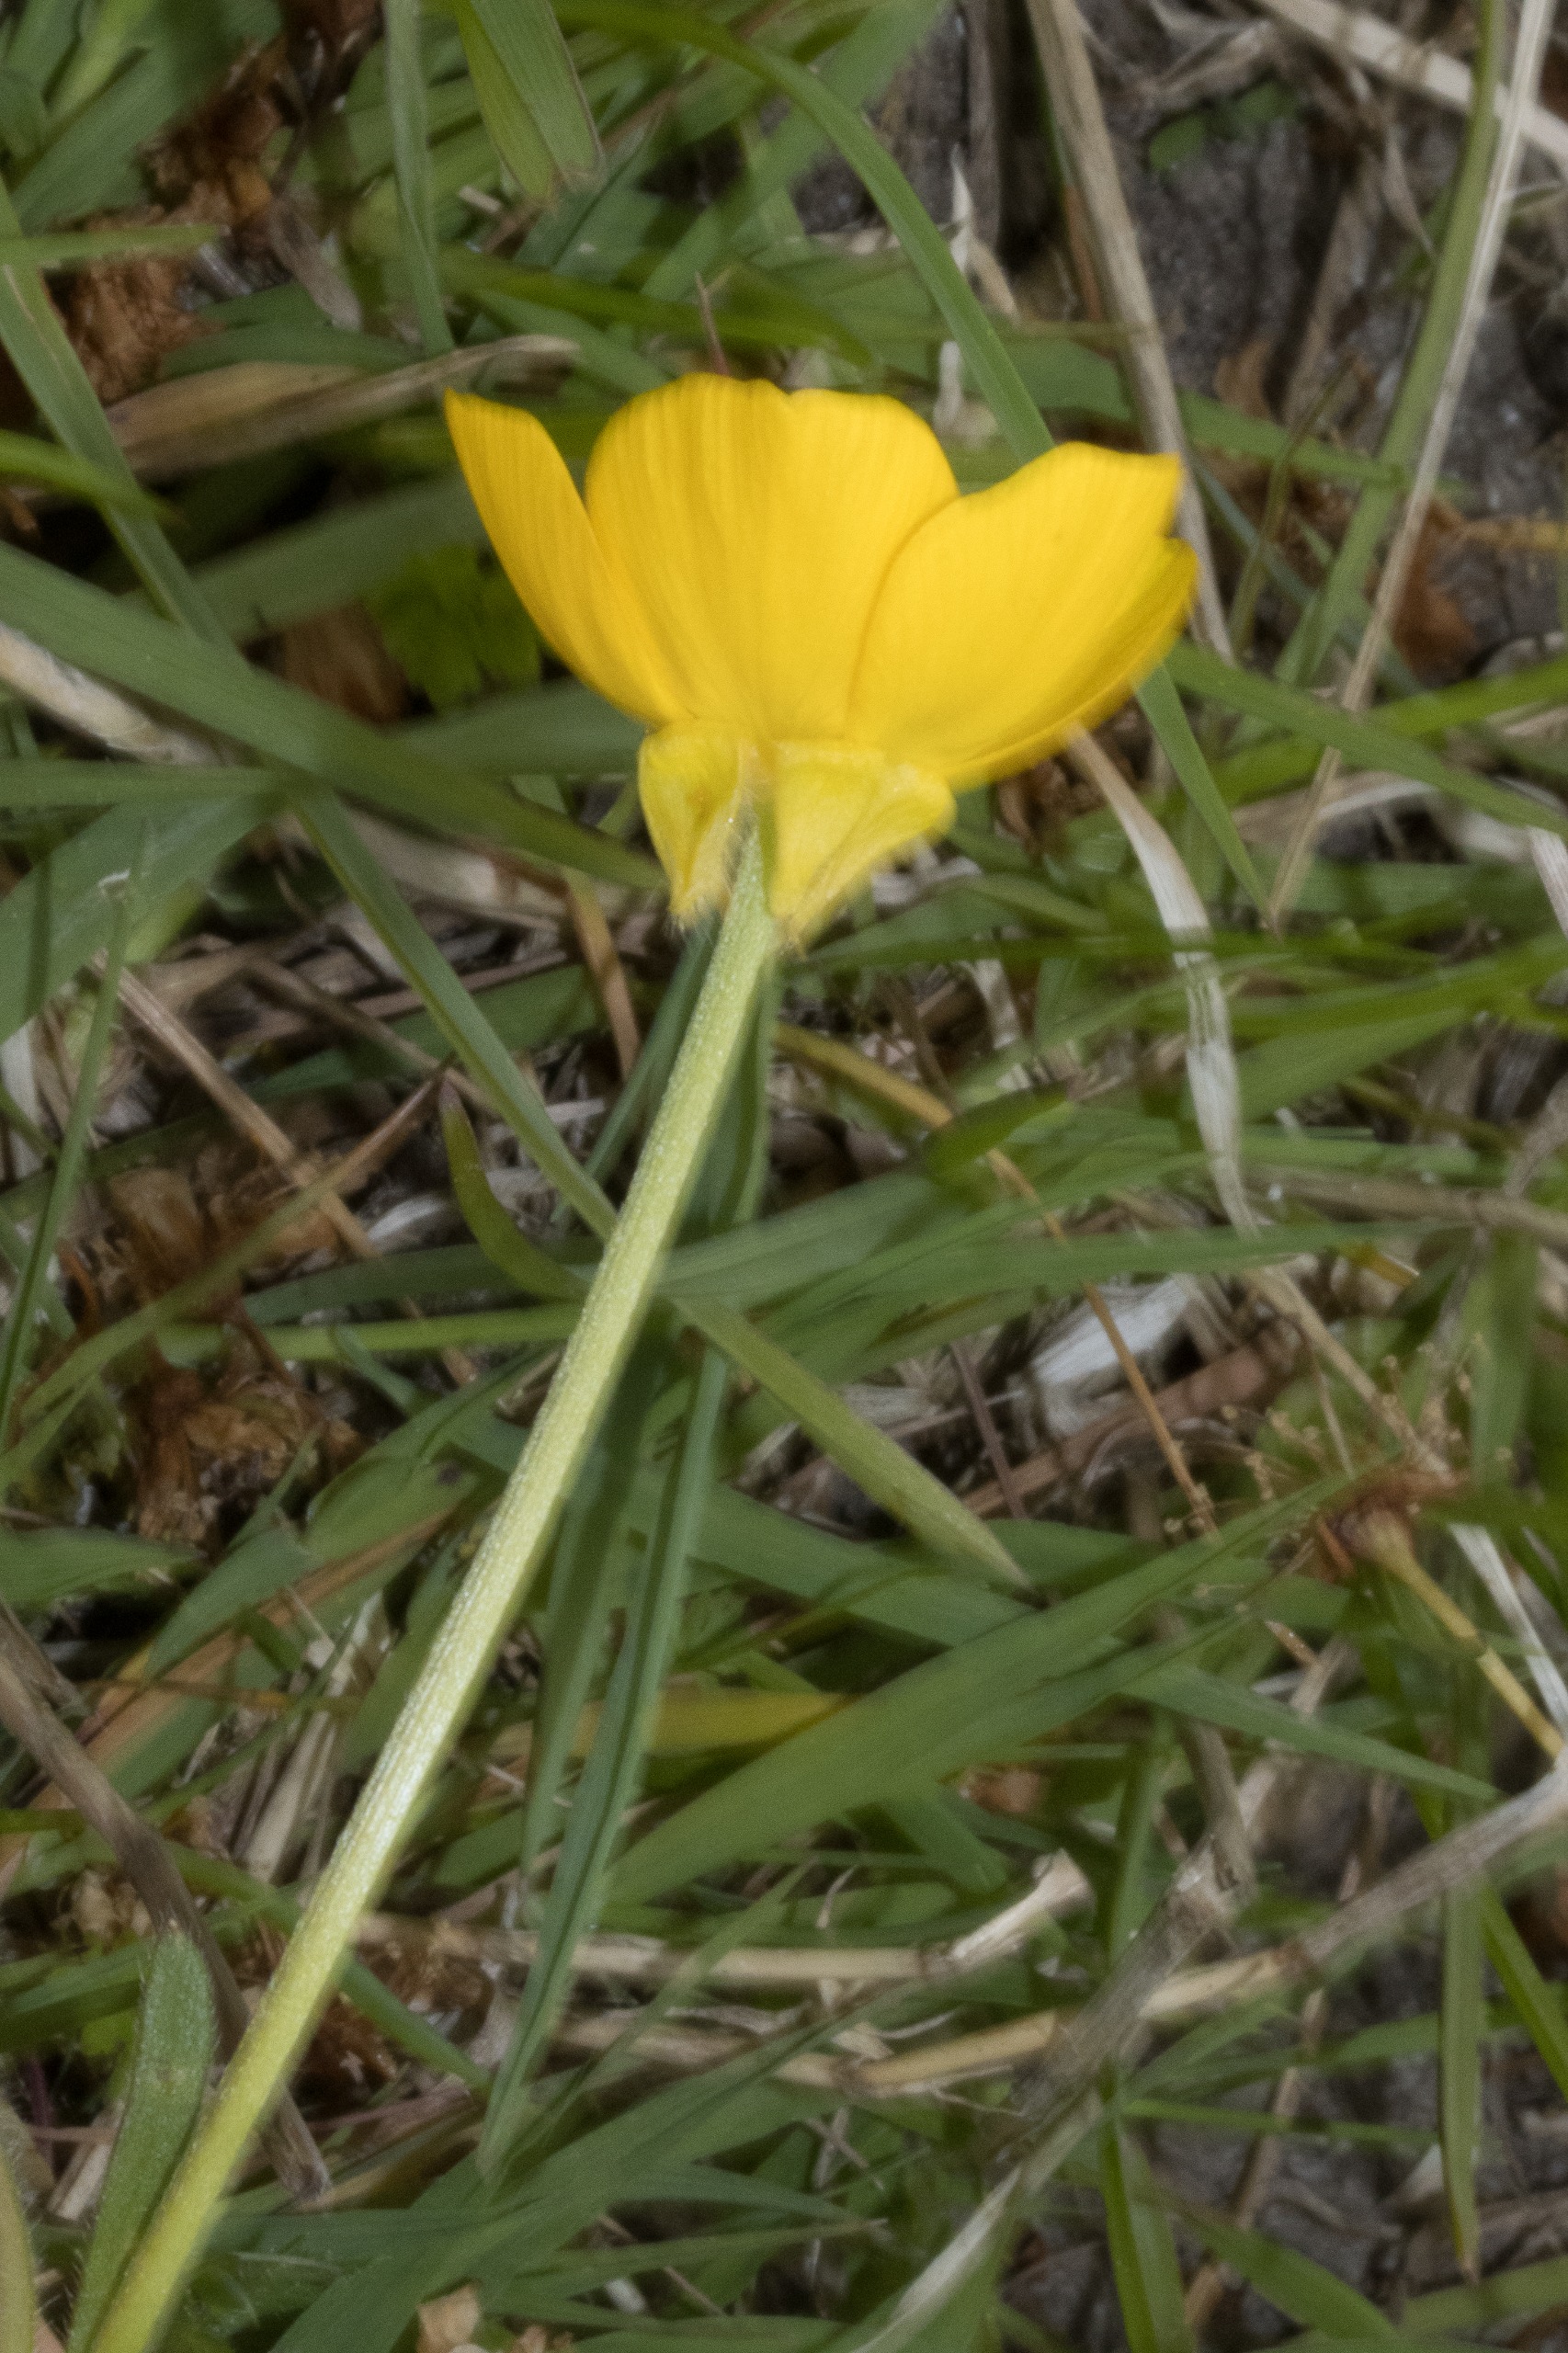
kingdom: Plantae
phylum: Tracheophyta
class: Magnoliopsida
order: Ranunculales
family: Ranunculaceae
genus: Ranunculus
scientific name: Ranunculus bulbosus
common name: Knold-ranunkel
